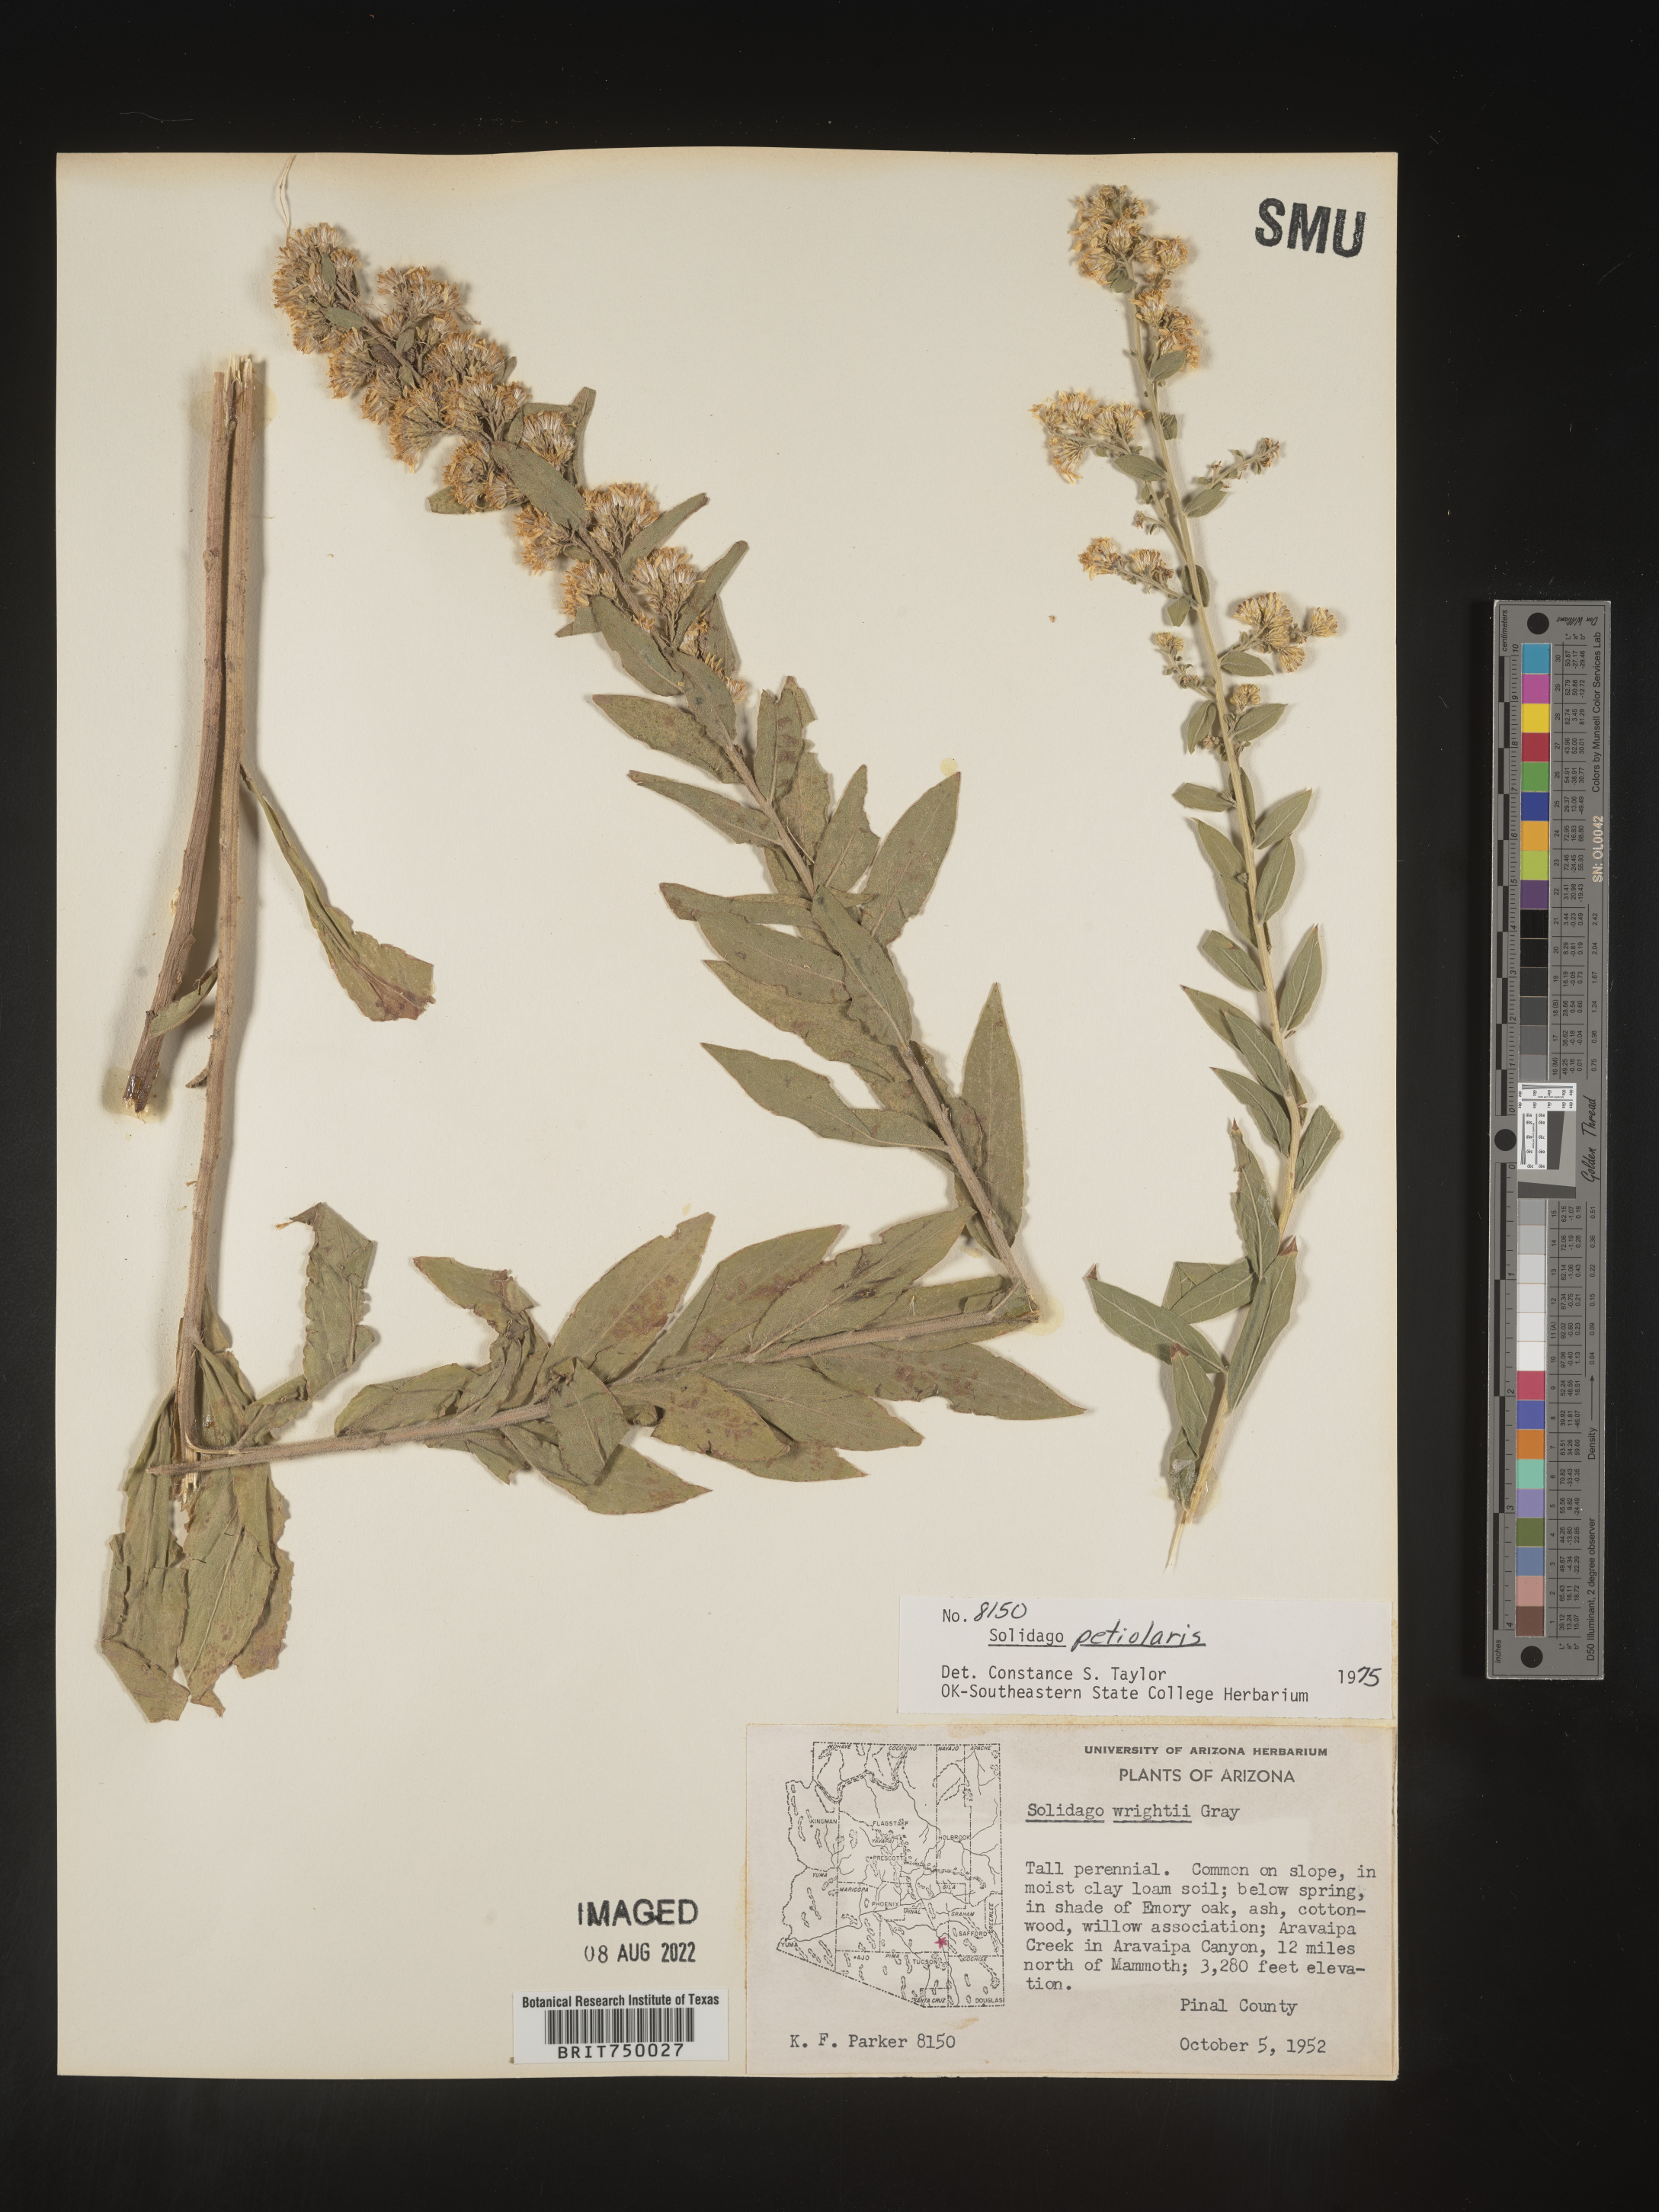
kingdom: Plantae
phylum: Tracheophyta
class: Magnoliopsida
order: Asterales
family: Asteraceae
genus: Solidago
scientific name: Solidago wrightii
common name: Wright's goldenrod
